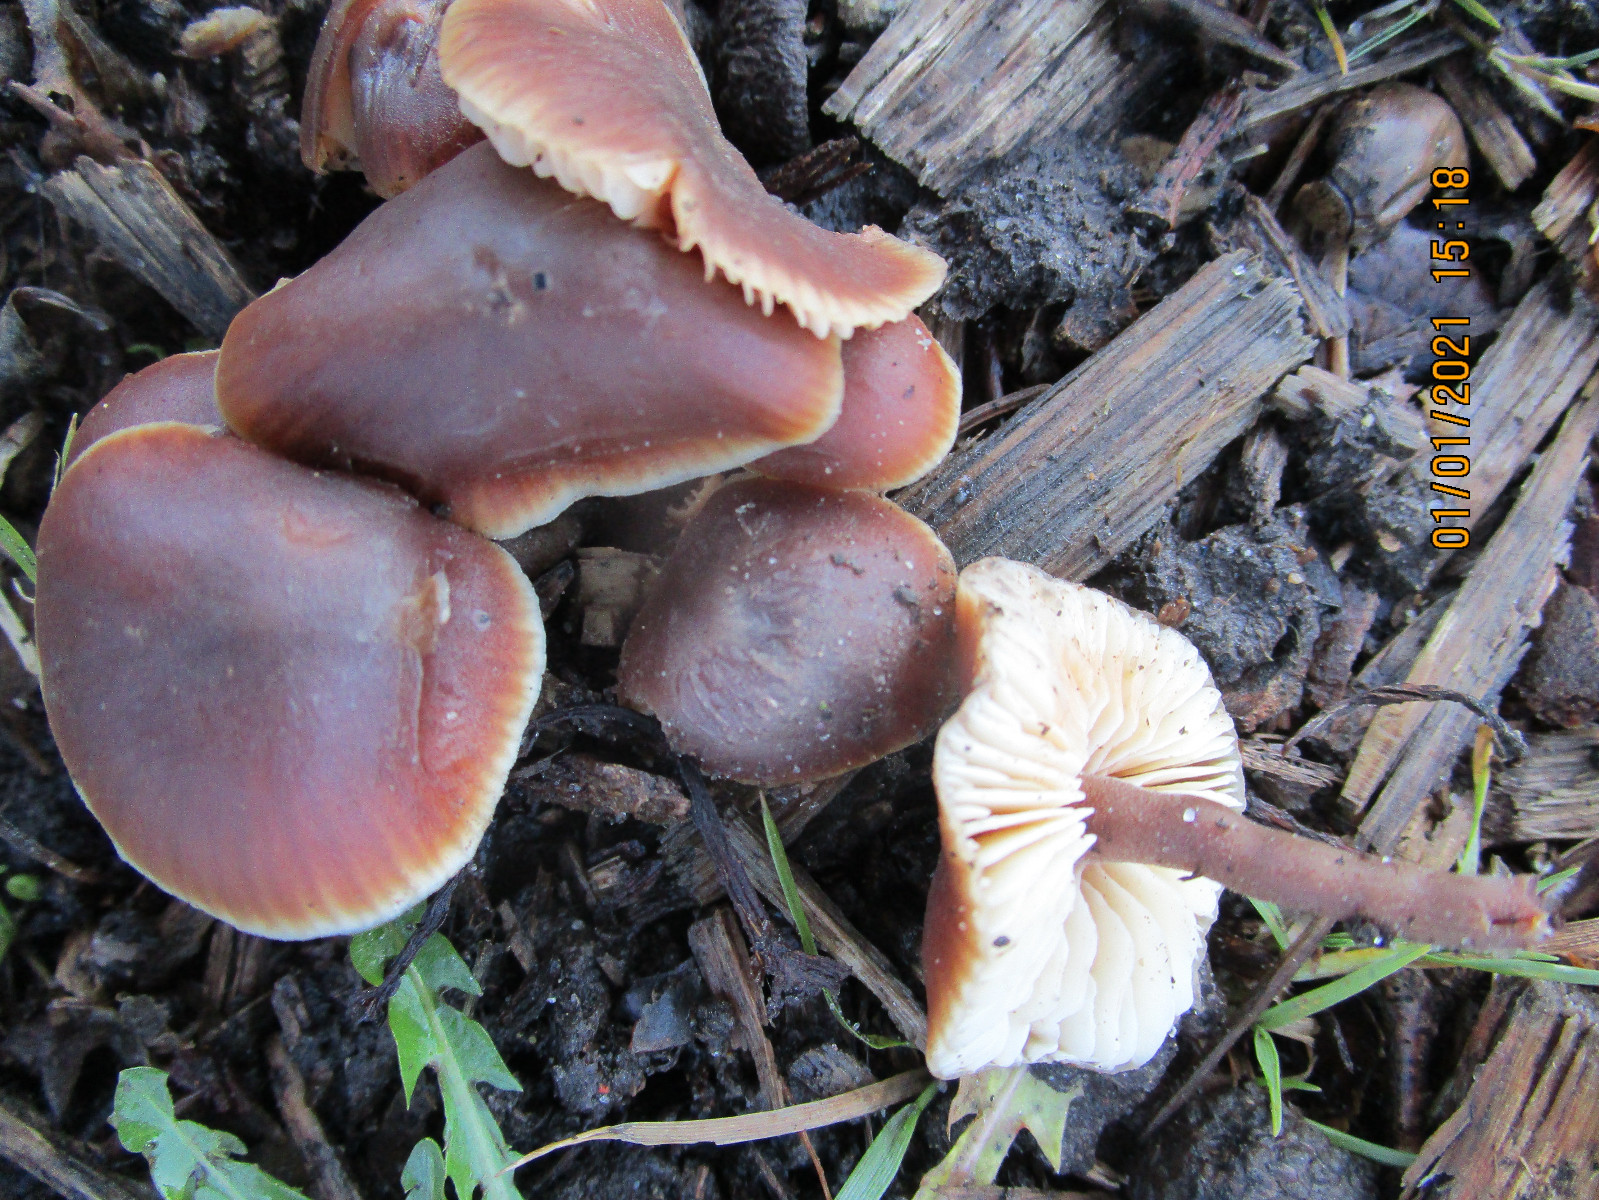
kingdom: Fungi
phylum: Basidiomycota
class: Agaricomycetes
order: Agaricales
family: Macrocystidiaceae
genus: Macrocystidia
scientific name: Macrocystidia cucumis
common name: agurkehat
